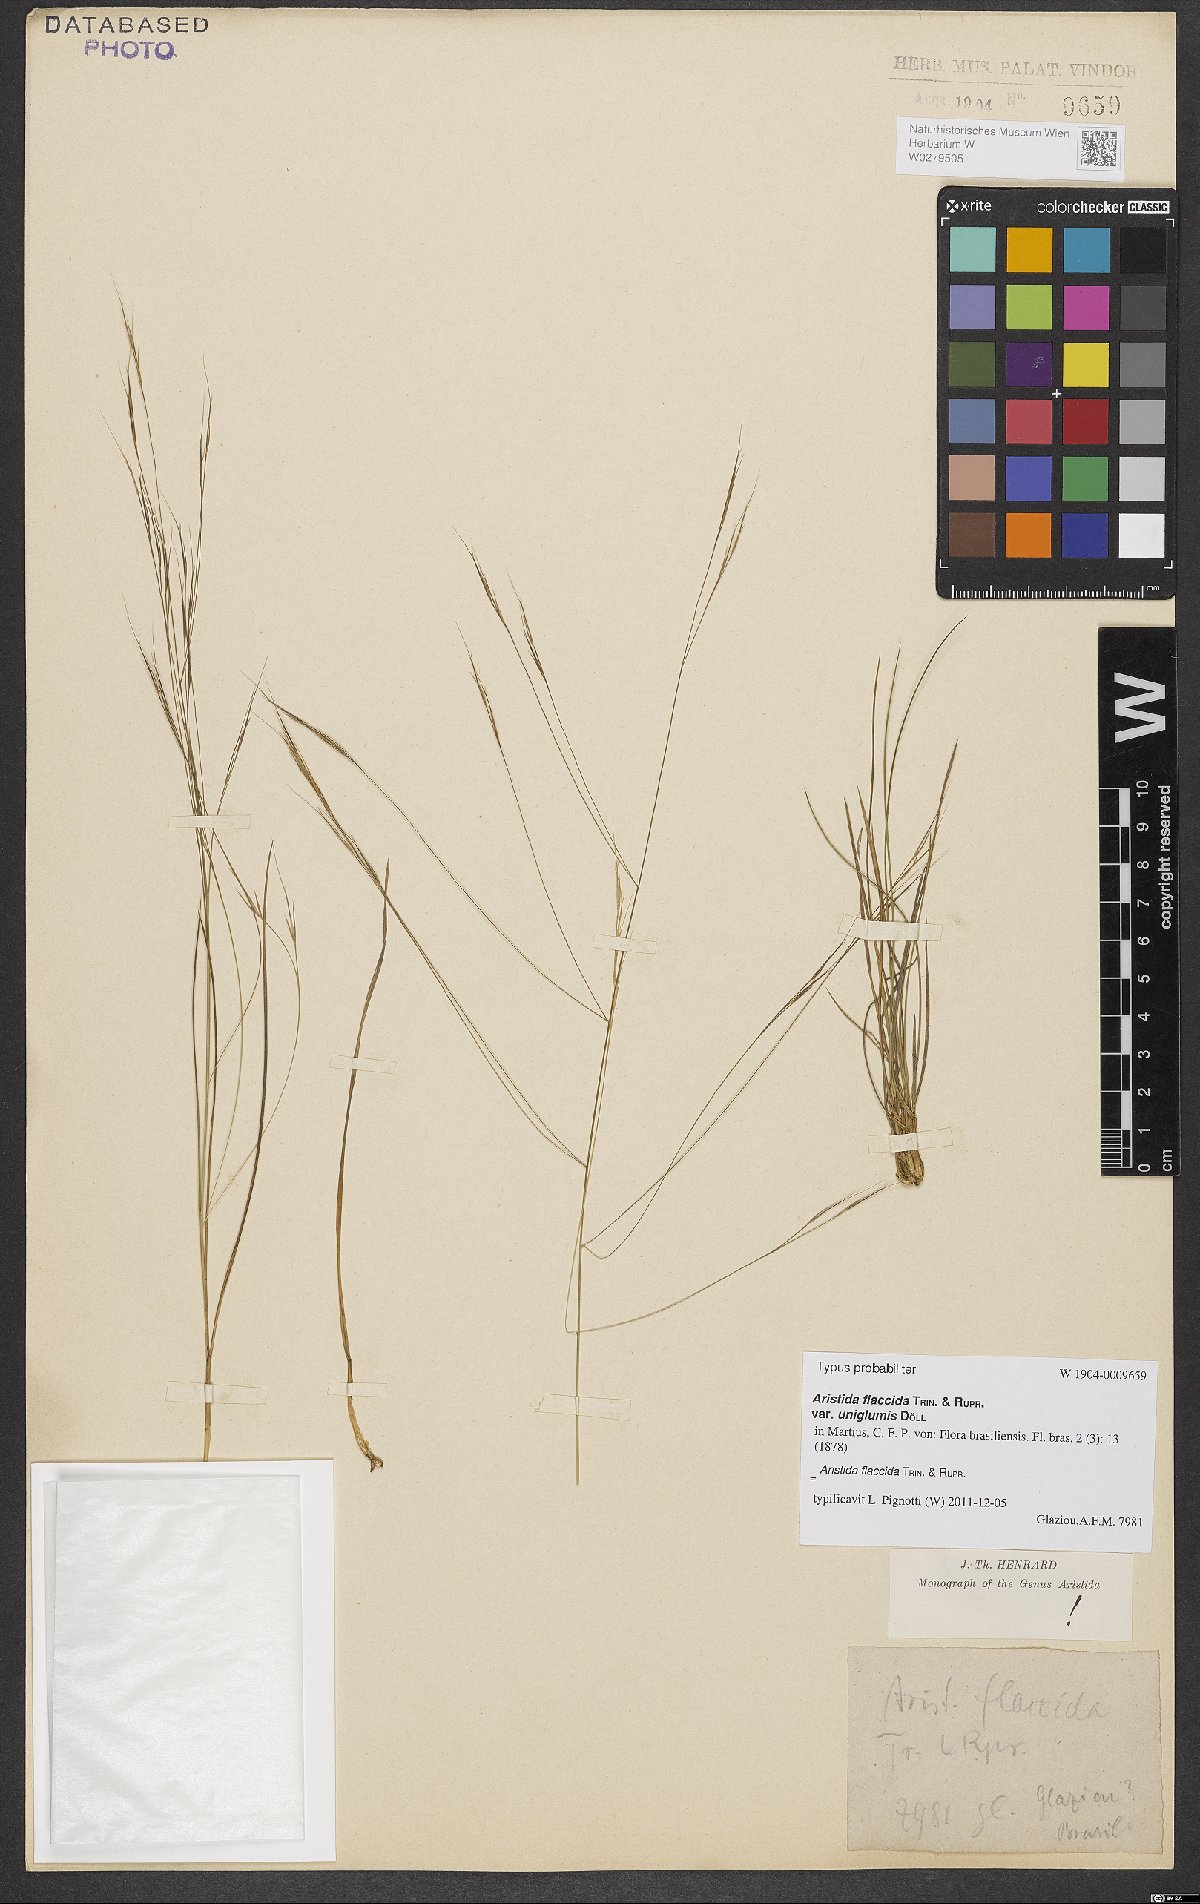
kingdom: Plantae
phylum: Tracheophyta
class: Liliopsida
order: Poales
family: Poaceae
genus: Aristida
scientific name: Aristida flaccida
